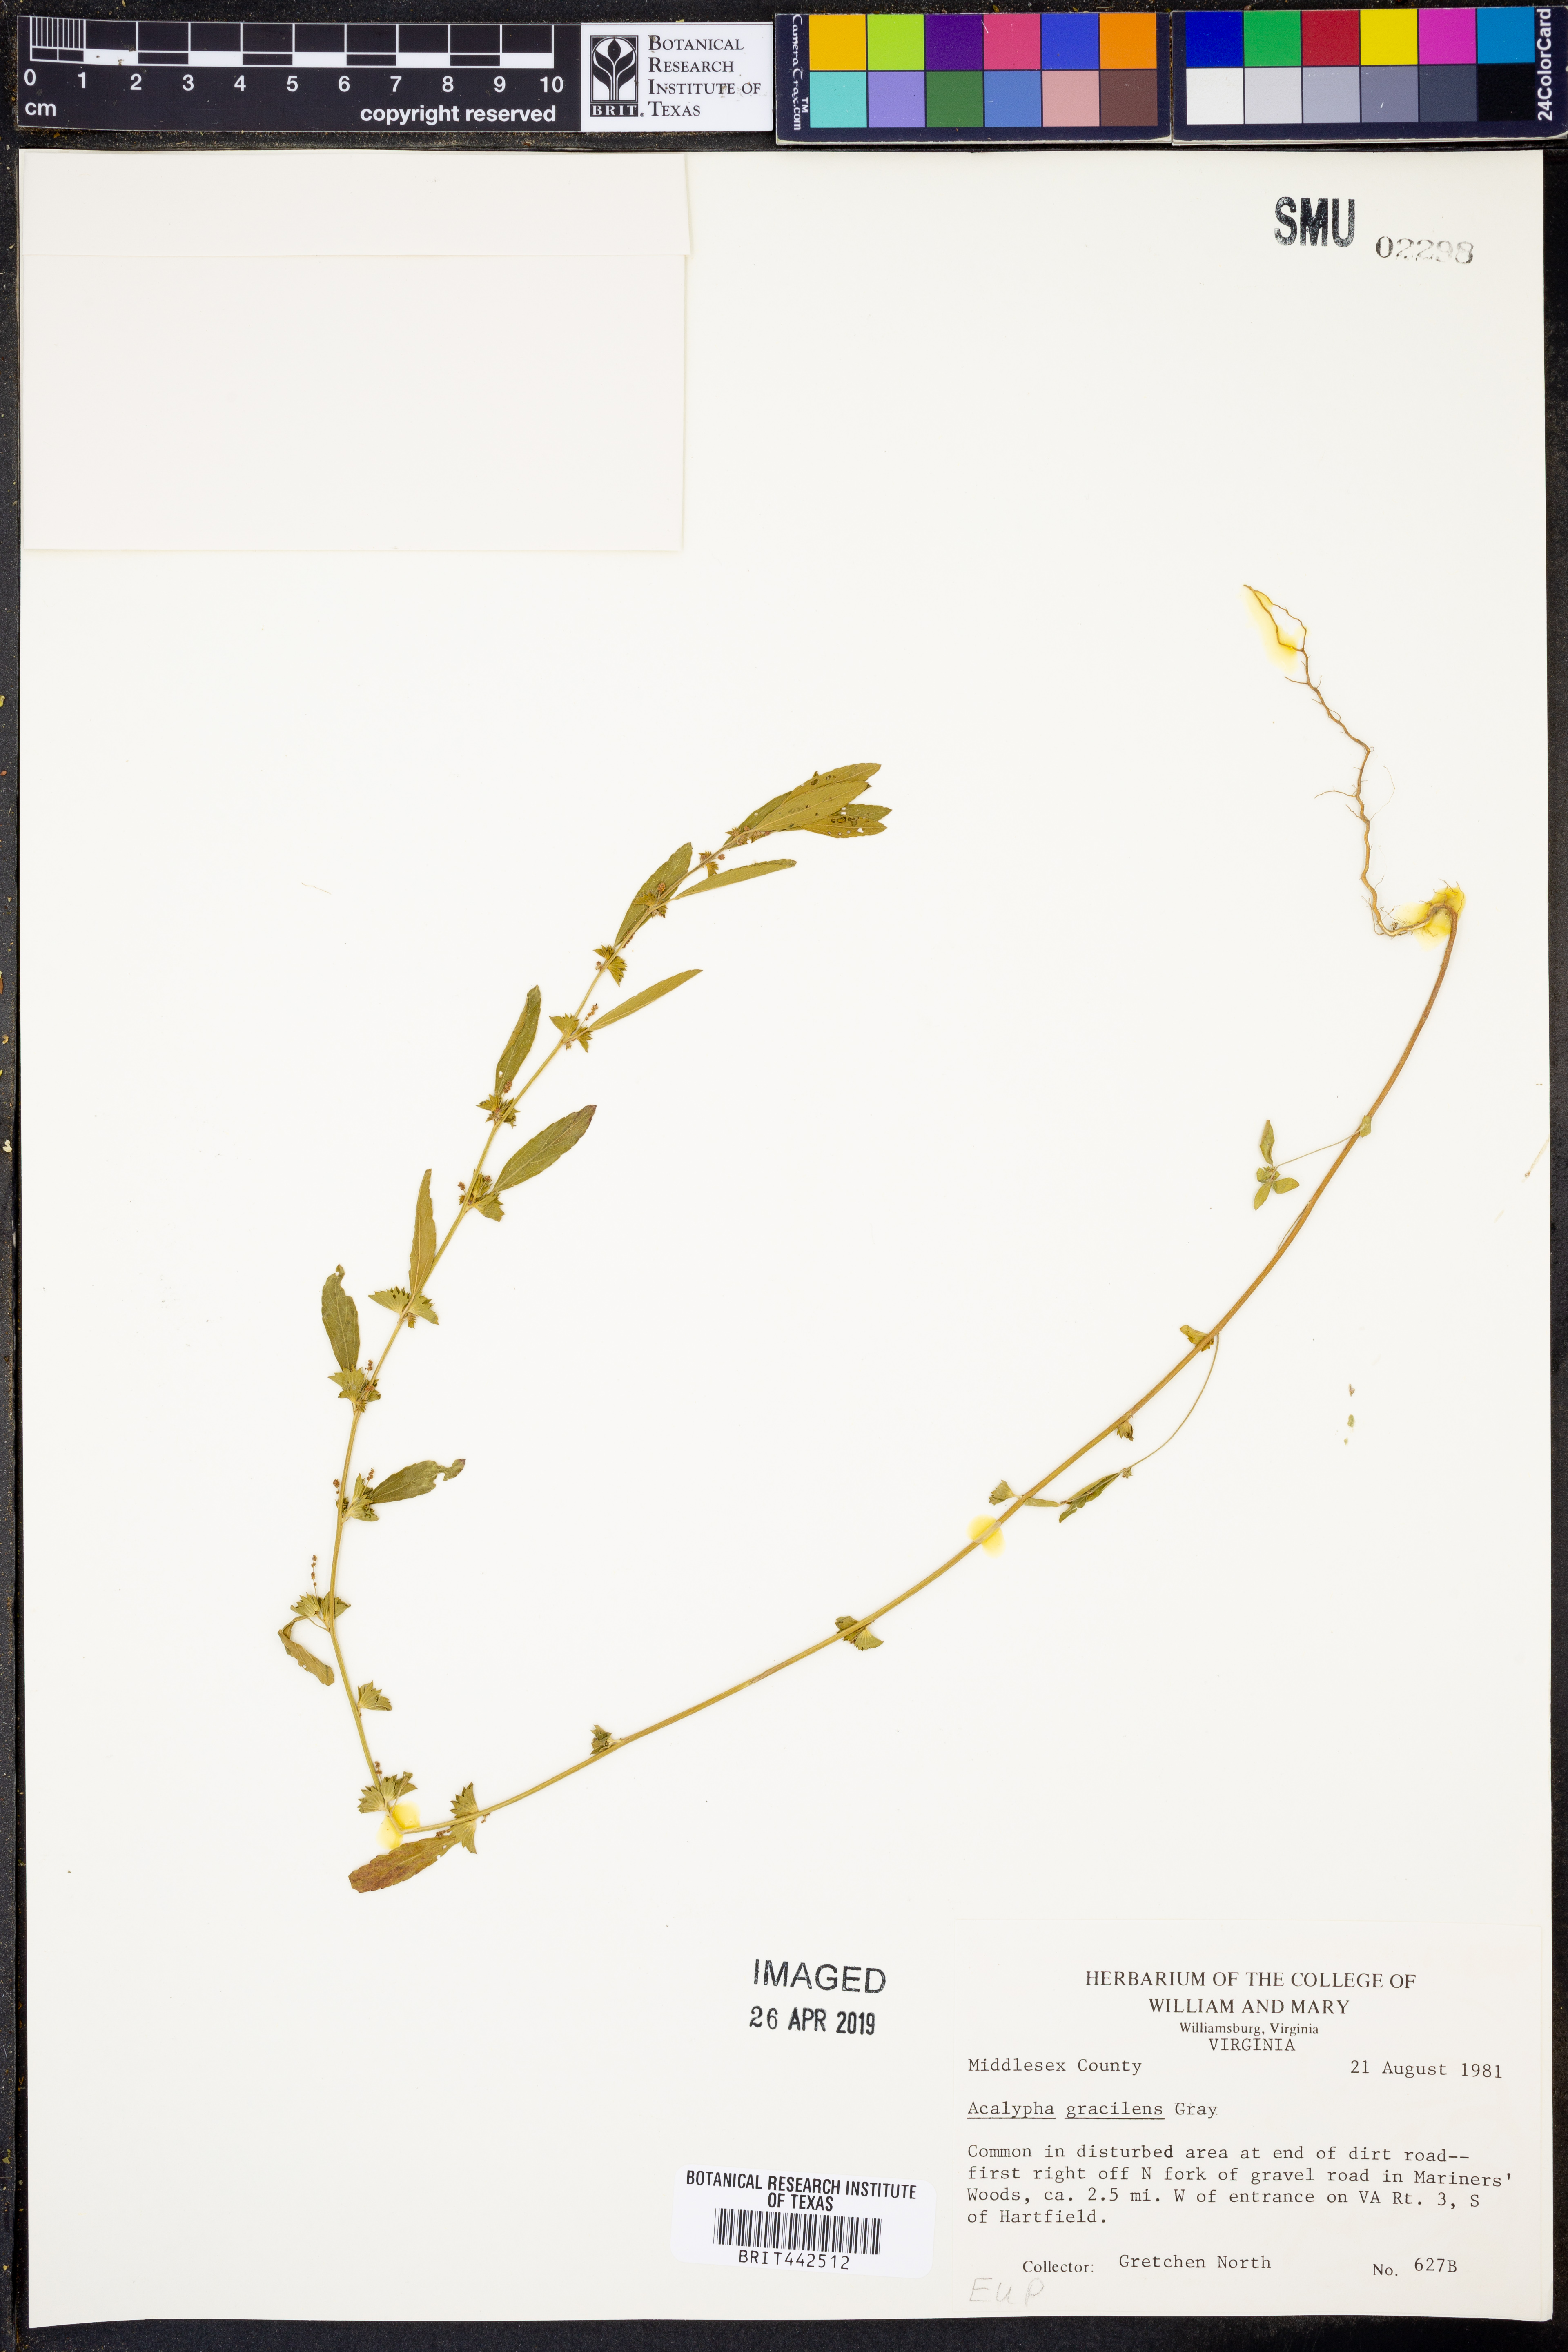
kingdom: Plantae
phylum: Tracheophyta
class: Magnoliopsida
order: Malpighiales
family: Euphorbiaceae
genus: Acalypha
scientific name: Acalypha gracilens
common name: Slender three-seeded mercury
